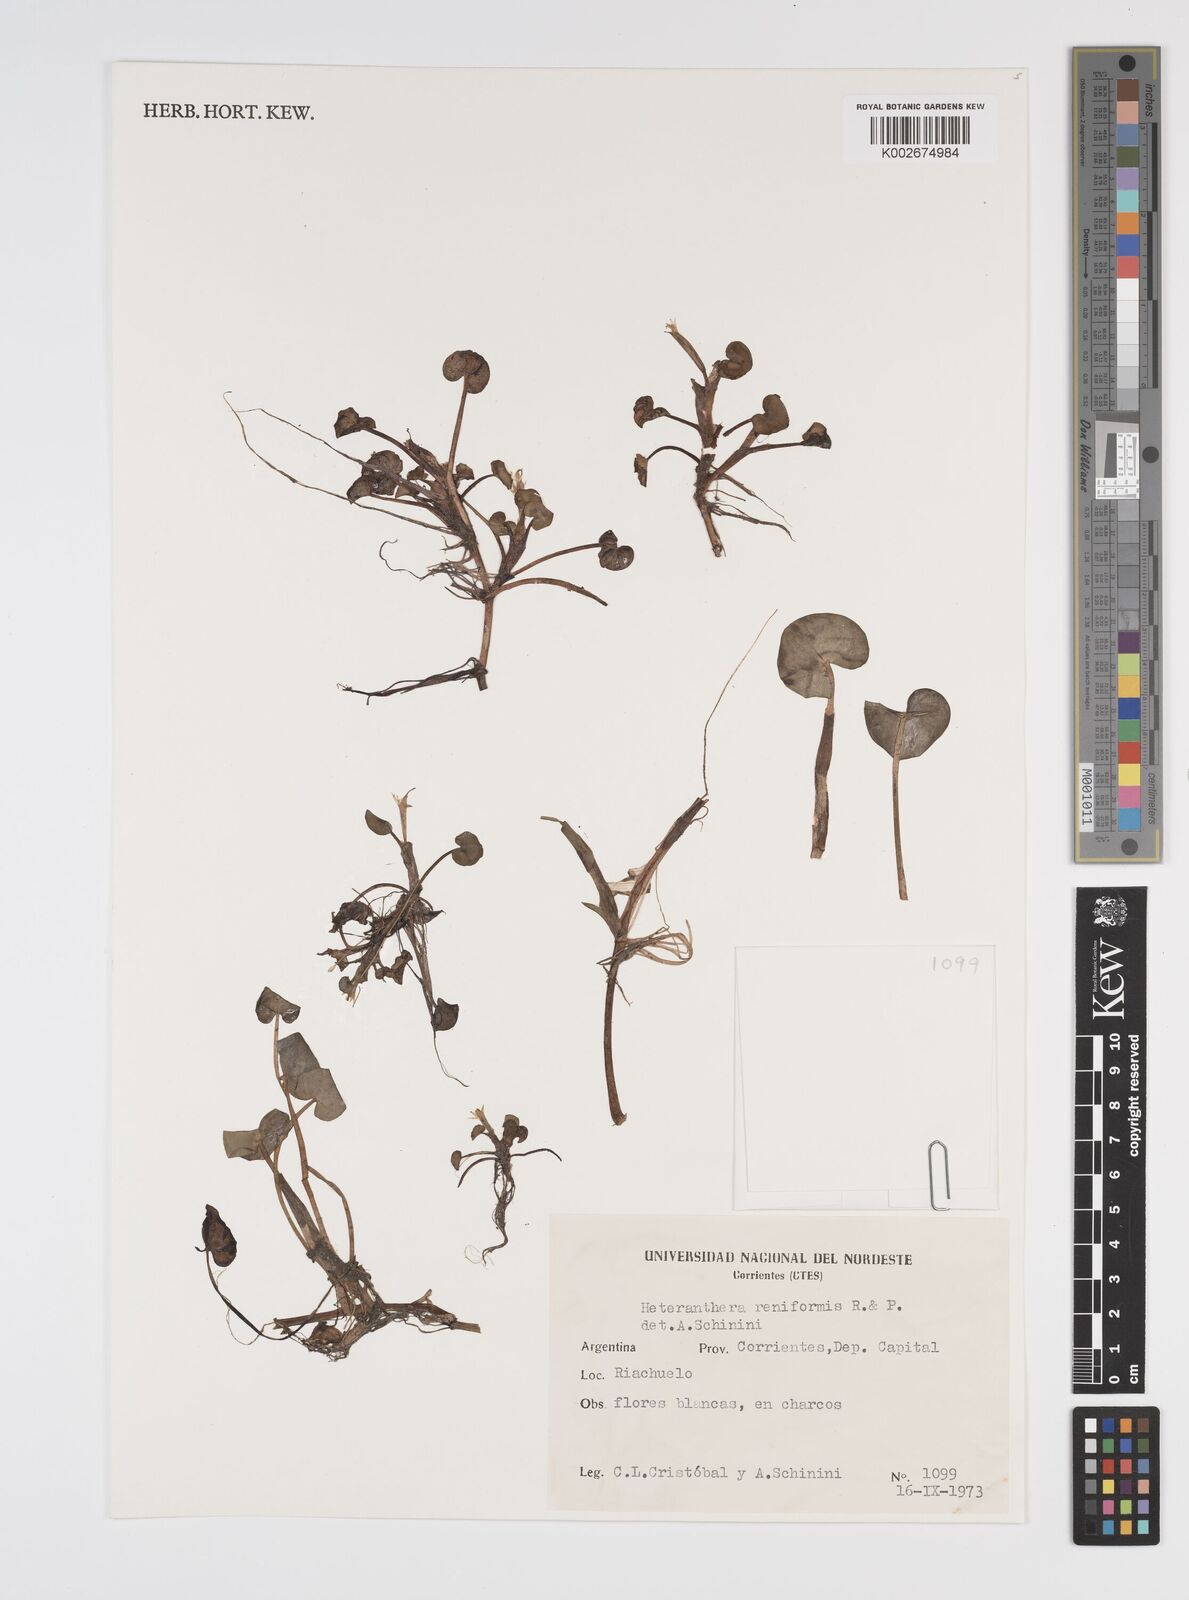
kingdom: Plantae
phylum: Tracheophyta
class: Liliopsida
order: Commelinales
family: Pontederiaceae
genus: Heteranthera
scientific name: Heteranthera reniformis
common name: Kidneyleaf mudplantain
